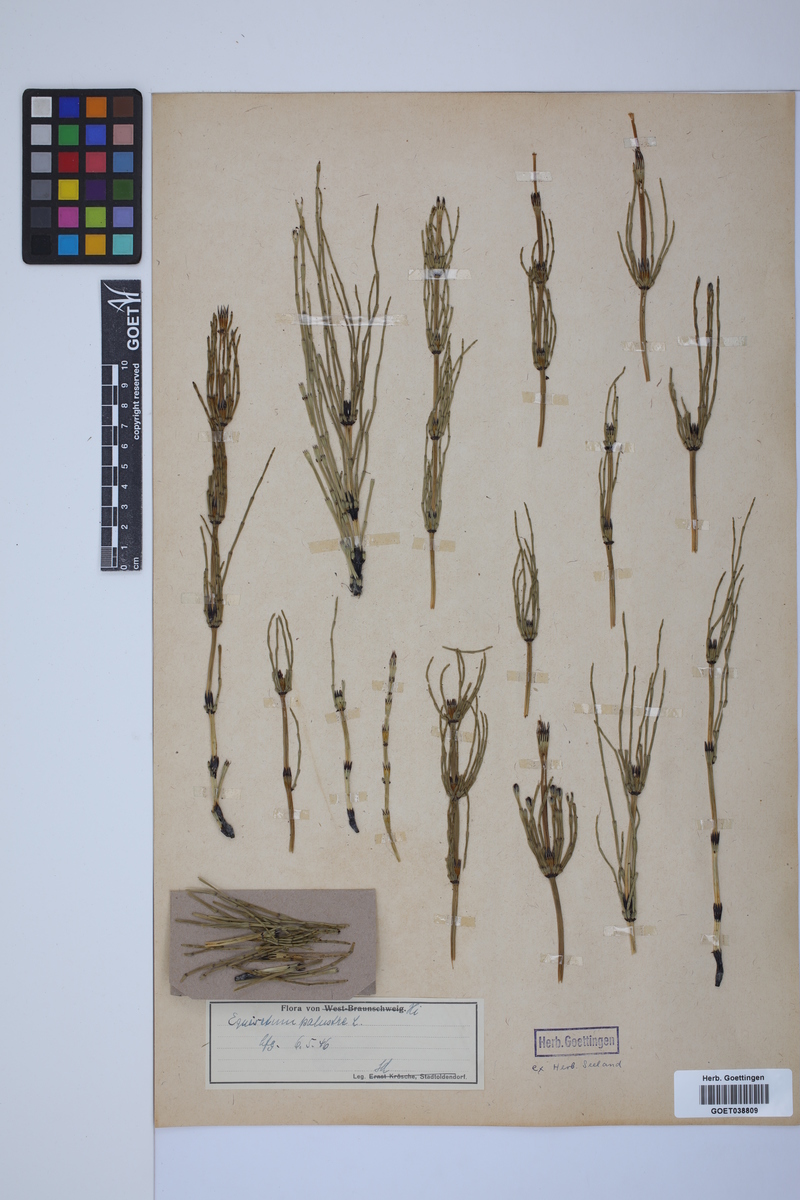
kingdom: Plantae
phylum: Tracheophyta
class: Polypodiopsida
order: Equisetales
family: Equisetaceae
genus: Equisetum
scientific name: Equisetum palustre
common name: Marsh horsetail
